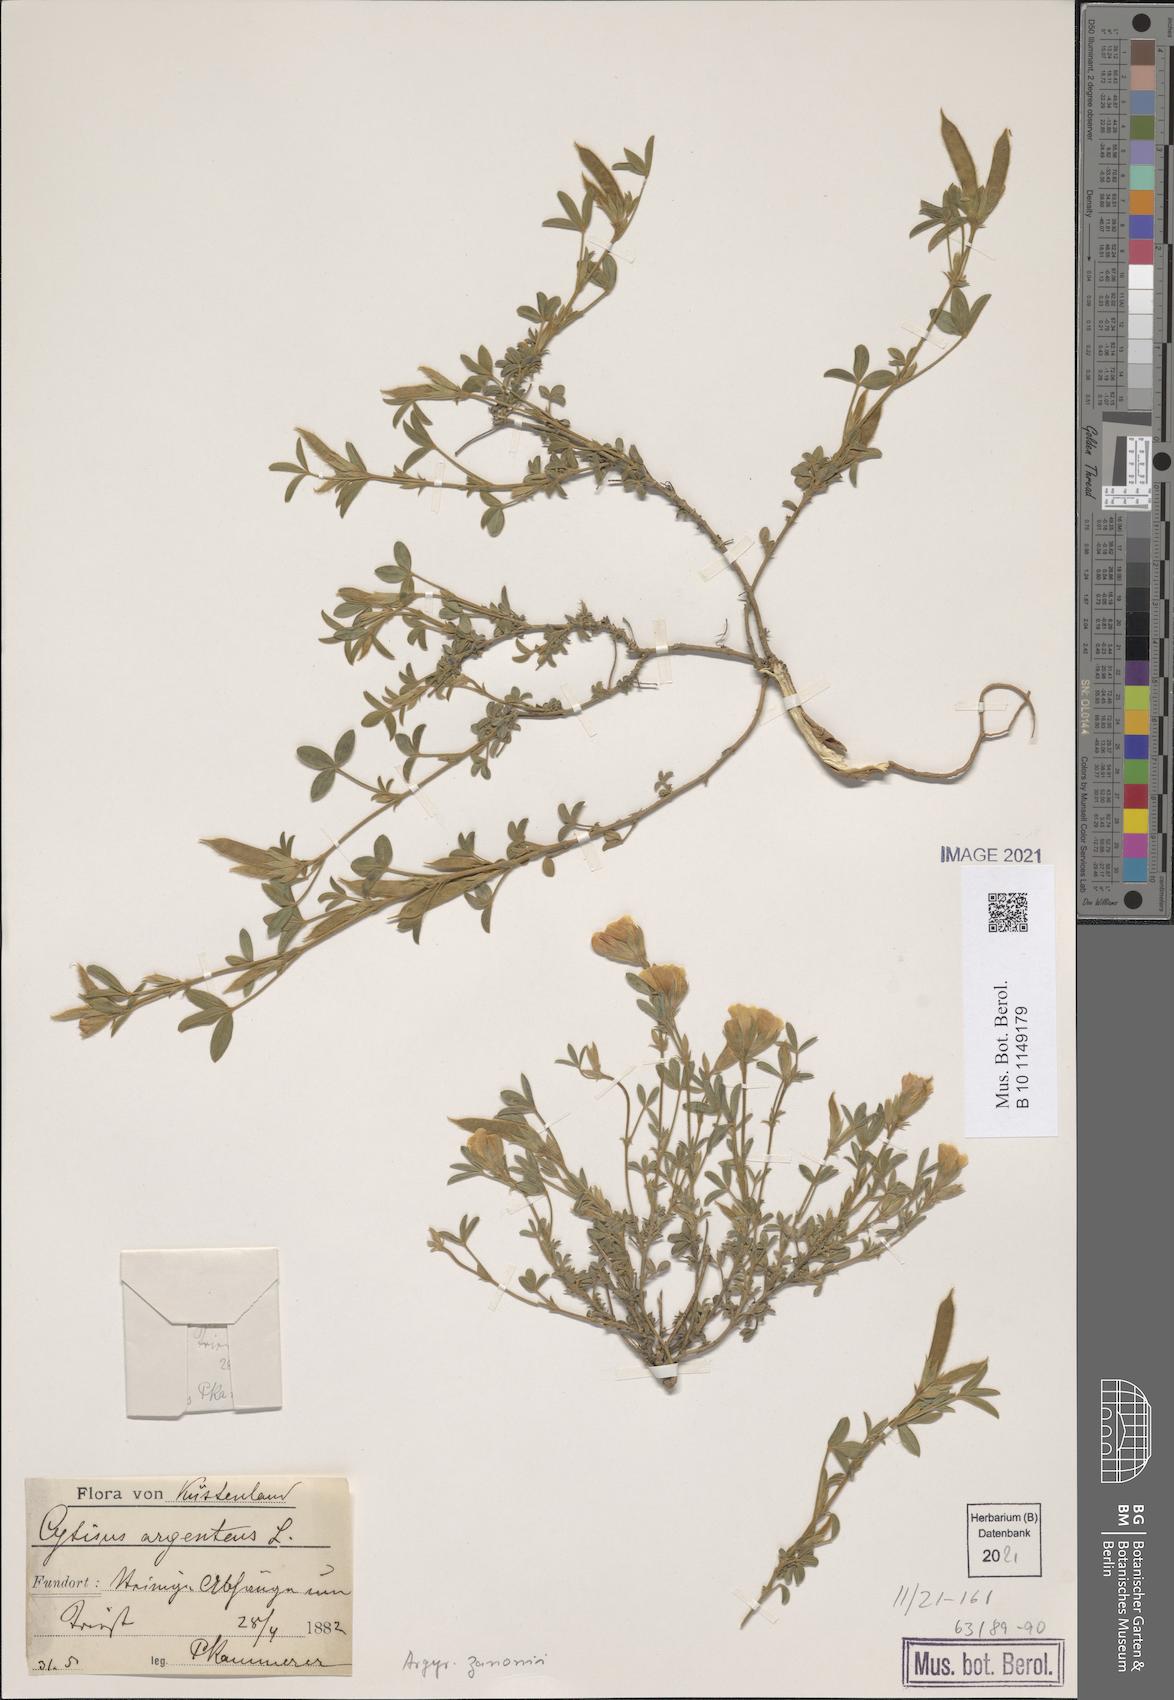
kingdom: Plantae
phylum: Tracheophyta
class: Magnoliopsida
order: Fabales
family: Fabaceae
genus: Argyrolobium
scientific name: Argyrolobium zanonii
